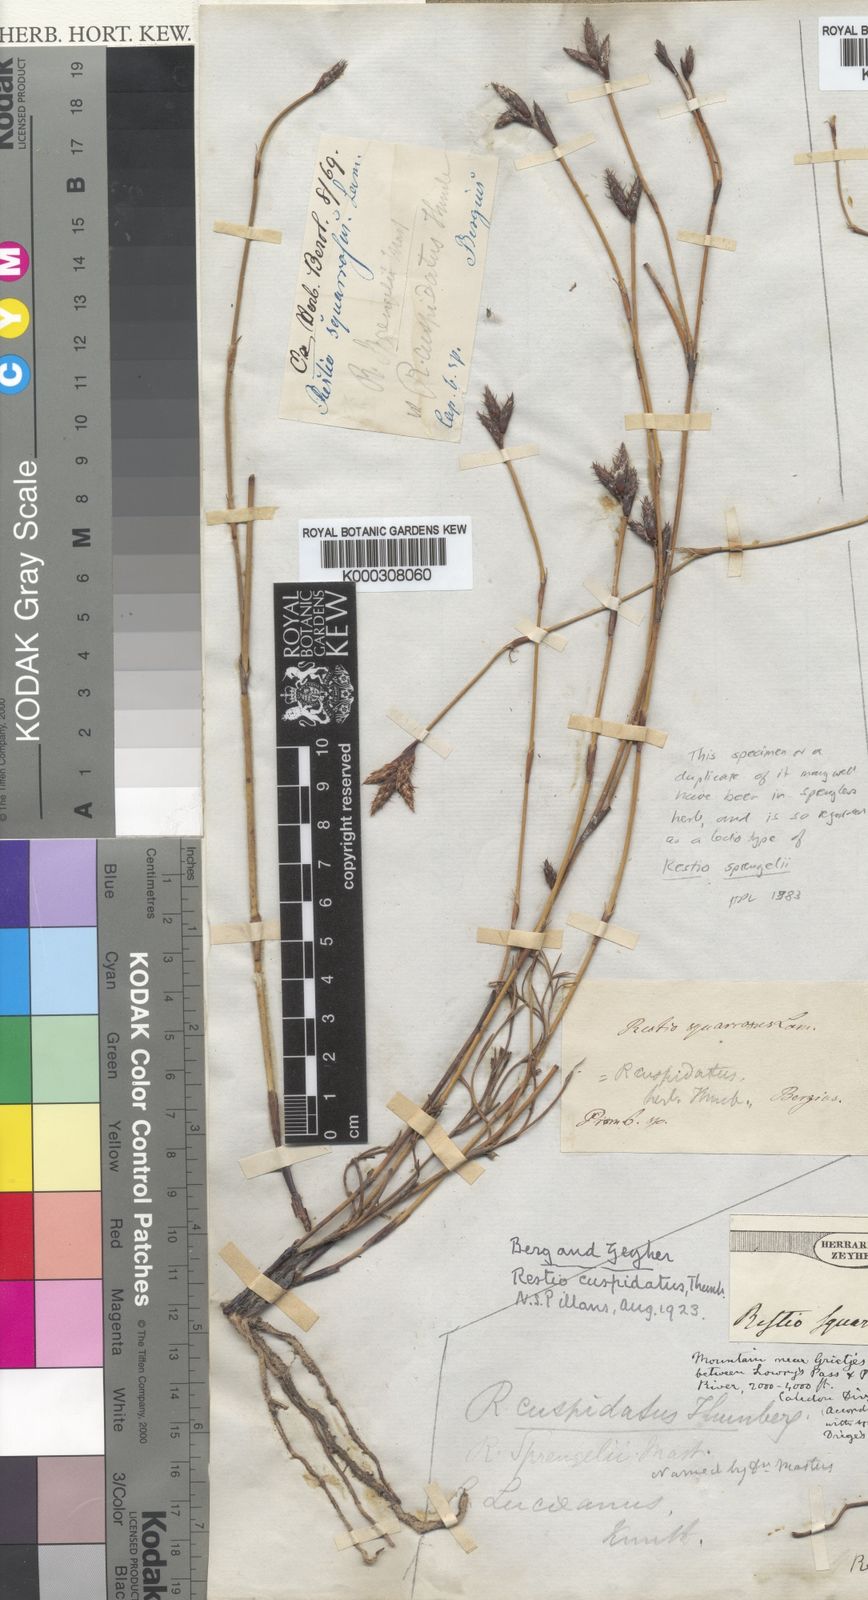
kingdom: Plantae
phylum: Tracheophyta
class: Liliopsida
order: Poales
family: Restionaceae
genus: Restio
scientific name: Restio capensis
